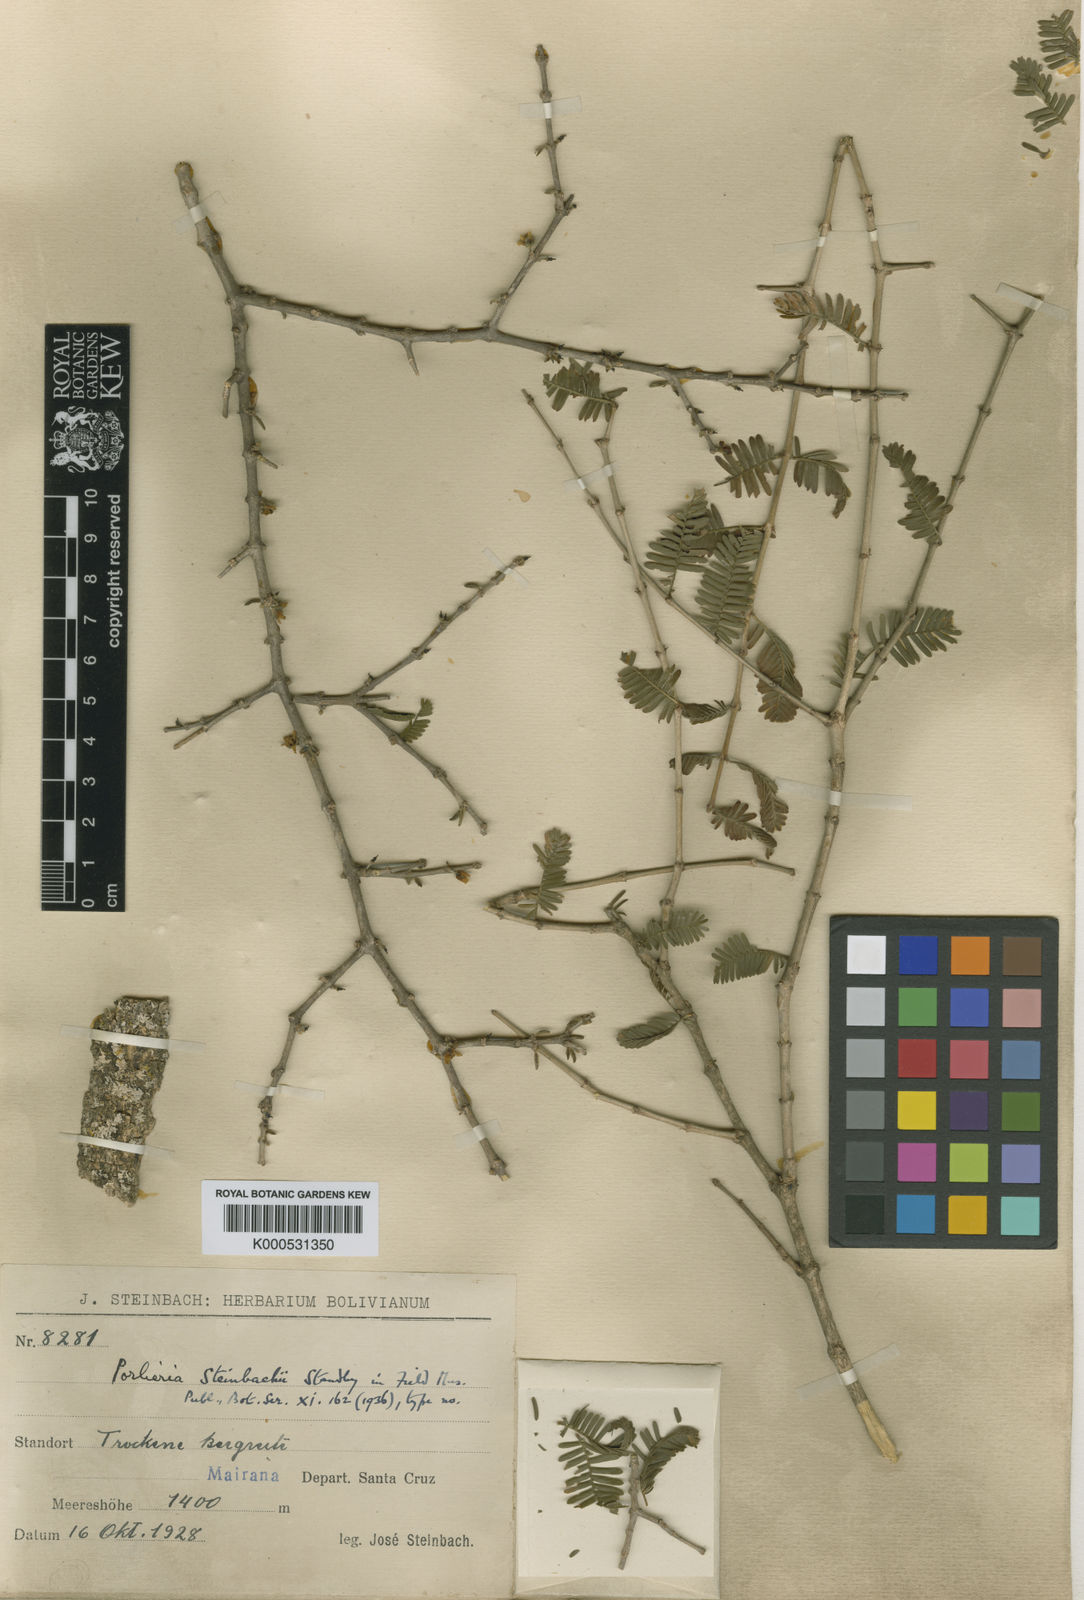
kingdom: Plantae
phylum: Tracheophyta
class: Magnoliopsida
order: Zygophyllales
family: Zygophyllaceae
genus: Porlieria
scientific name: Porlieria microphylla
